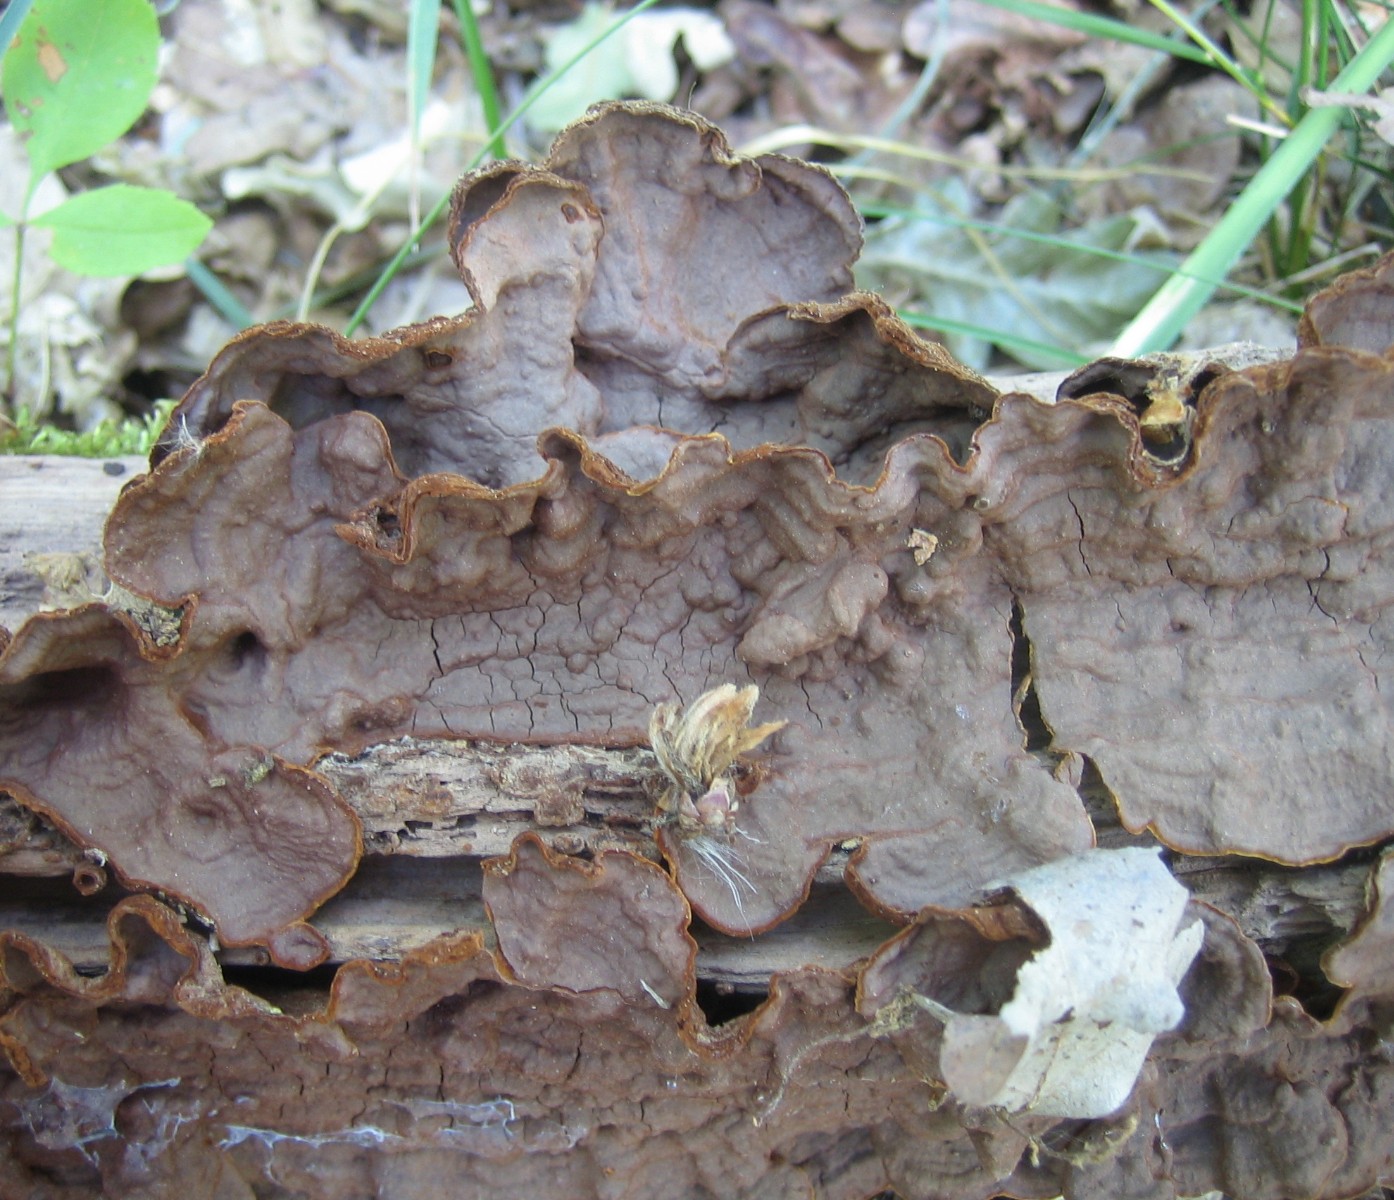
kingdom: Fungi
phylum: Basidiomycota
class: Agaricomycetes
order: Hymenochaetales
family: Hymenochaetaceae
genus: Hymenochaete
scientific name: Hymenochaete rubiginosa
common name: stiv ruslædersvamp
